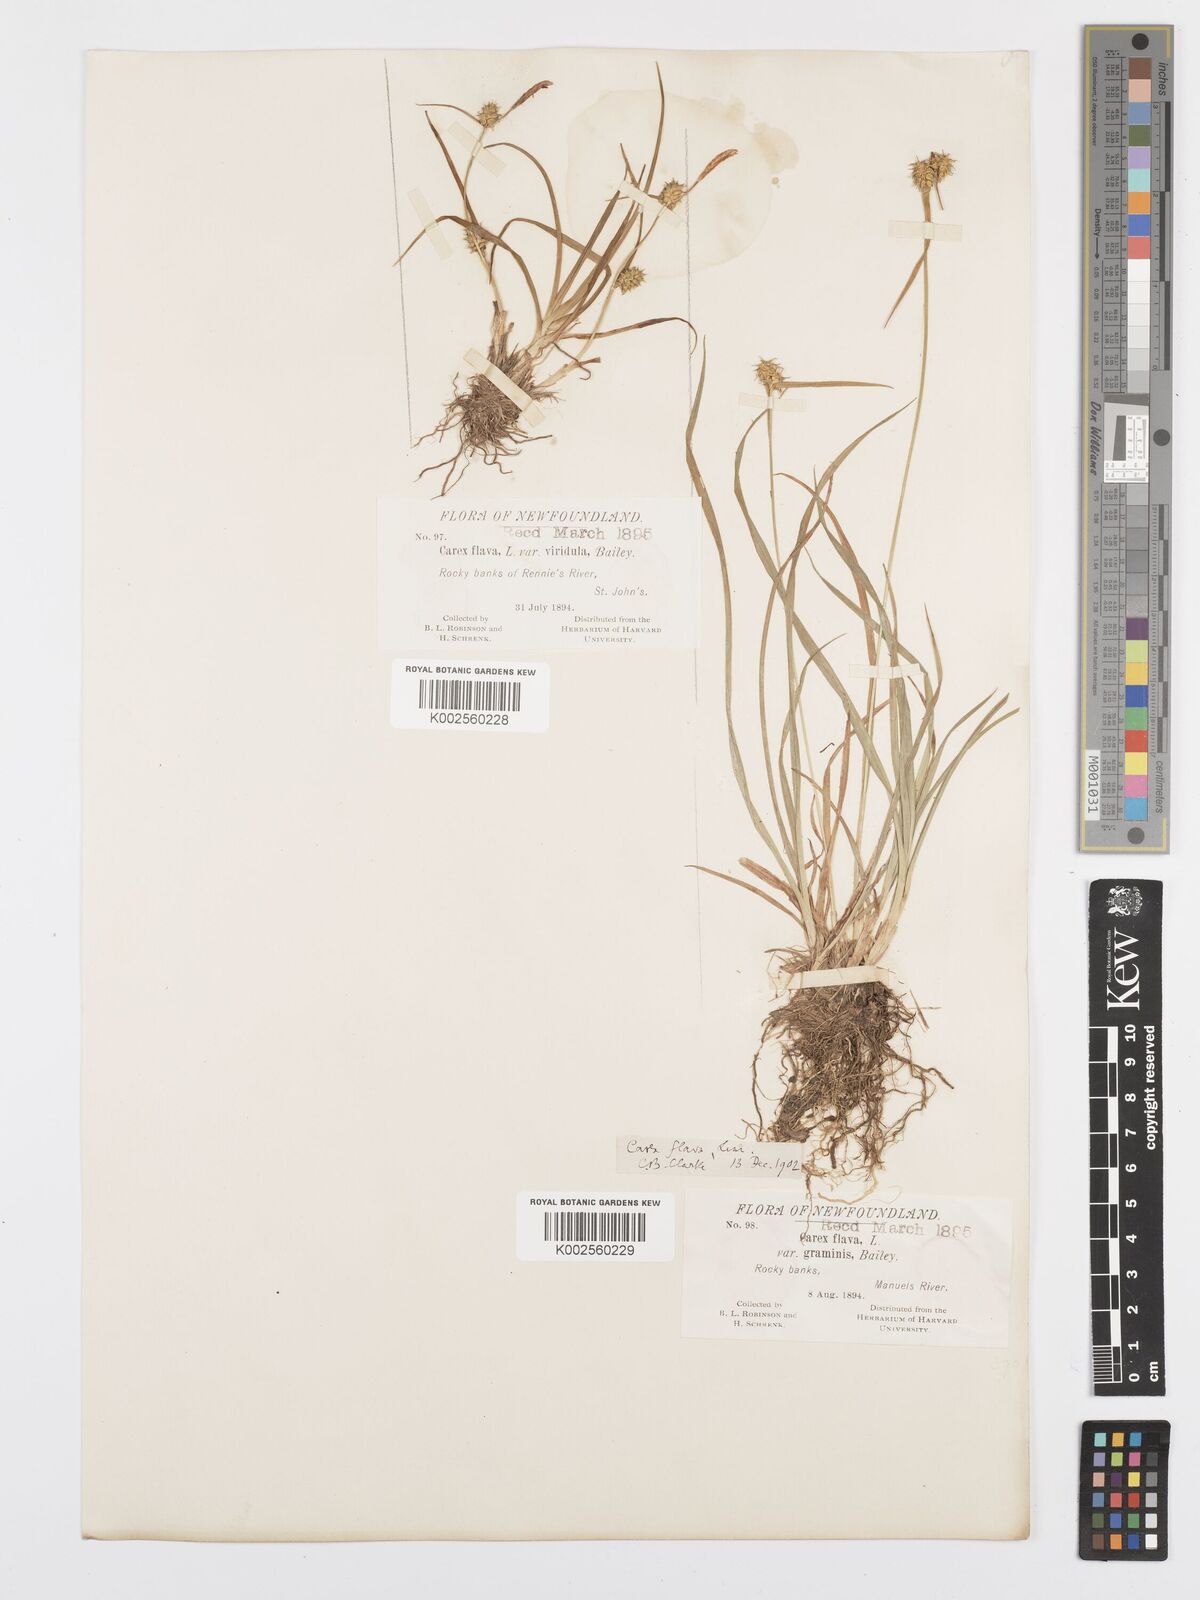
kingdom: Plantae
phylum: Tracheophyta
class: Liliopsida
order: Poales
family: Cyperaceae
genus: Carex
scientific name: Carex cryptolepis
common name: Northeastern sedge
